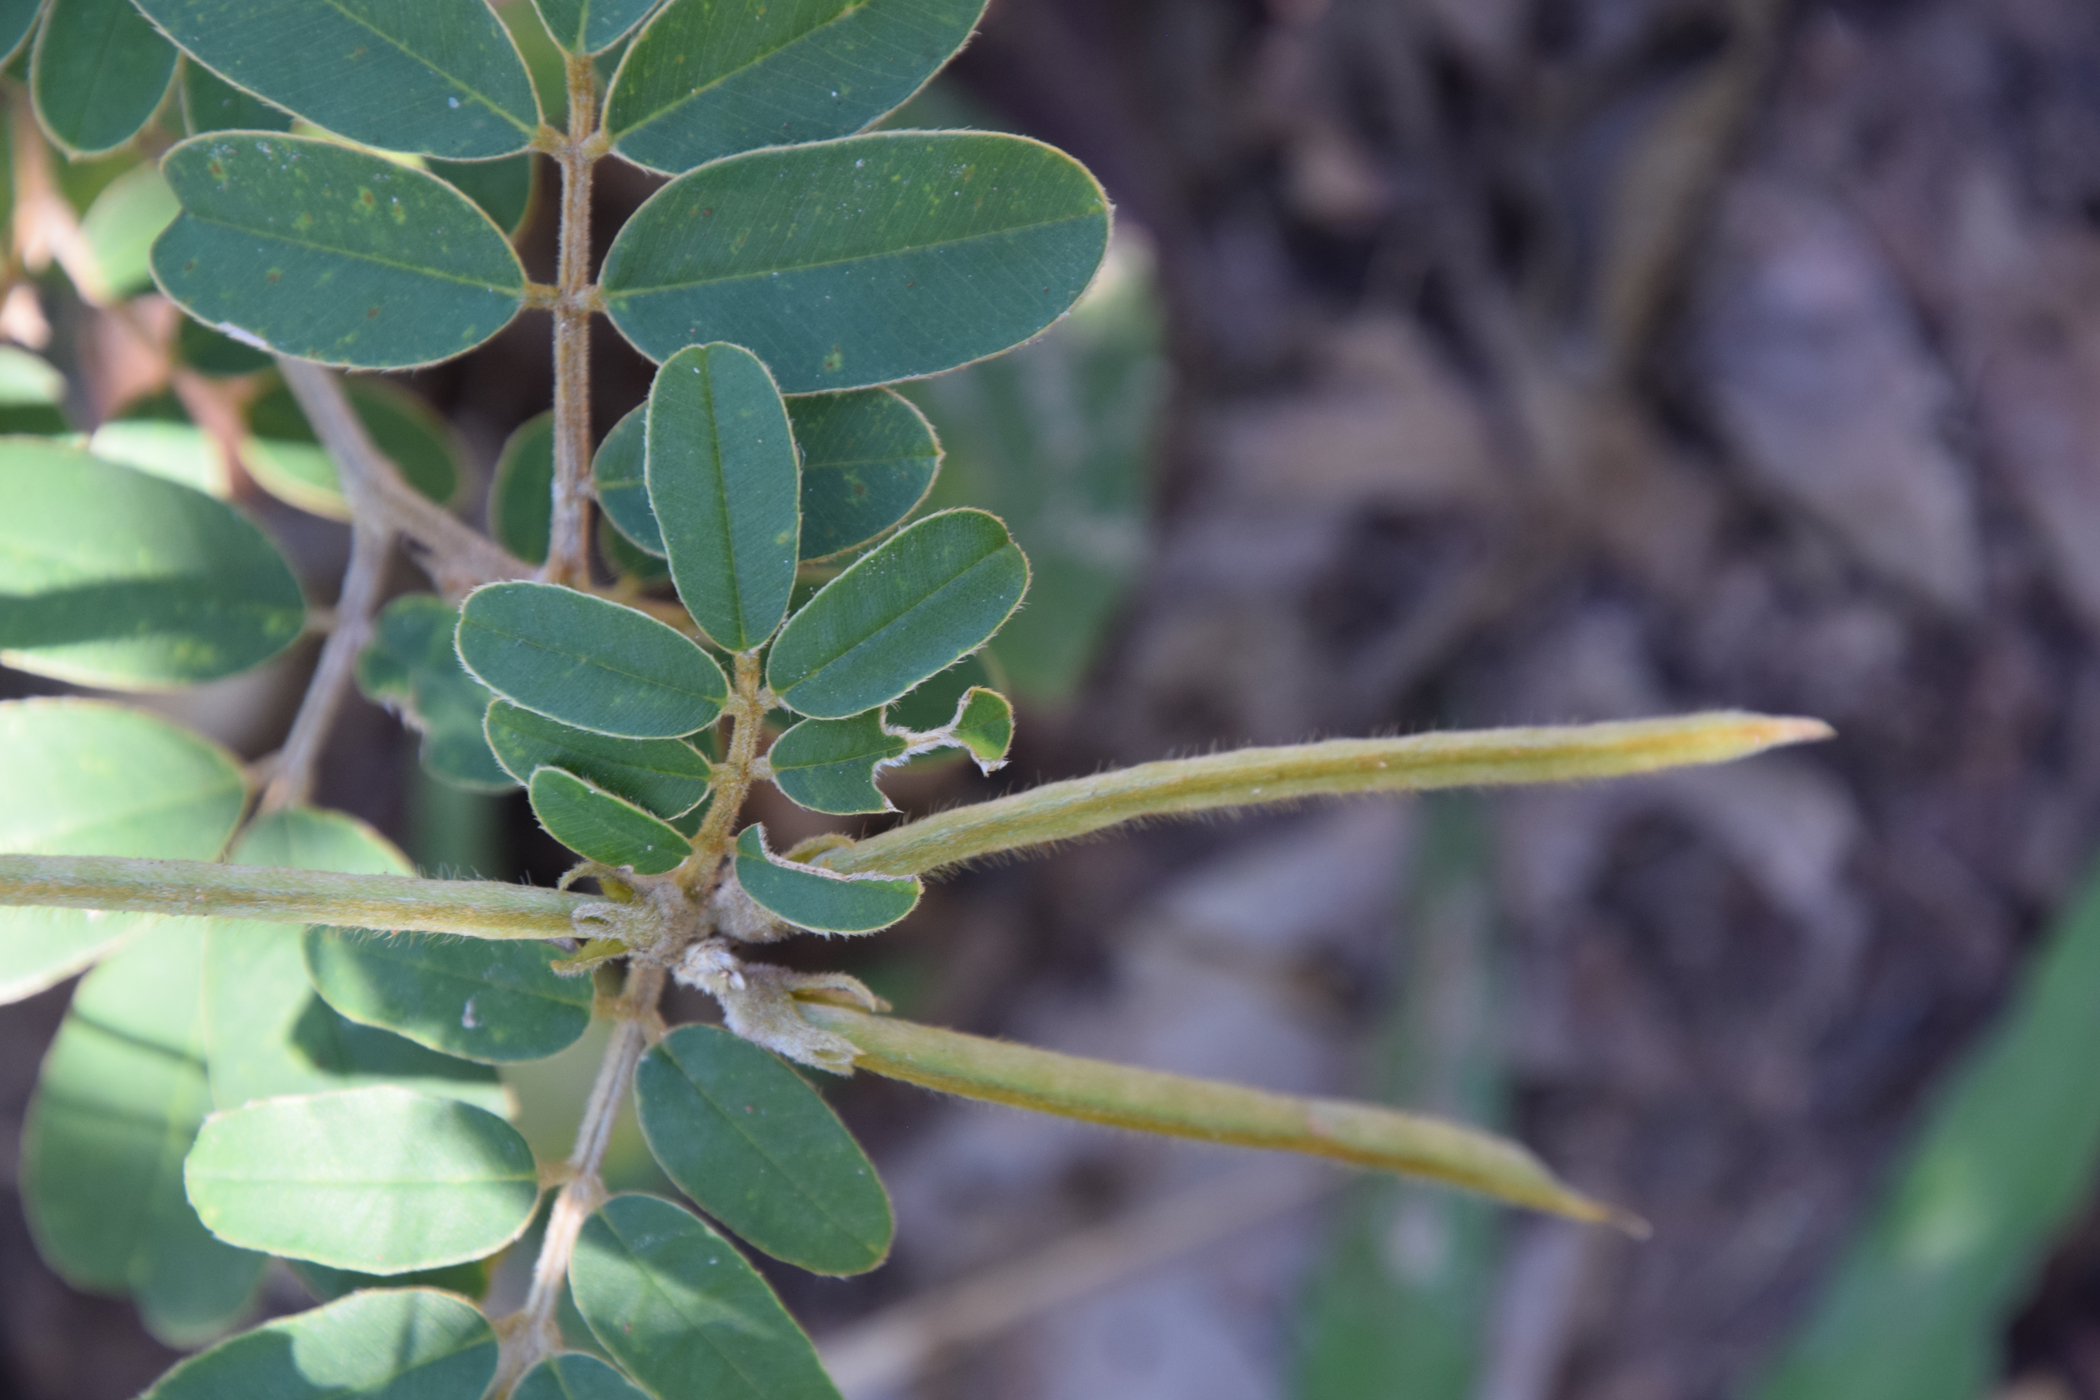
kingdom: Plantae
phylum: Tracheophyta
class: Magnoliopsida
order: Fabales
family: Fabaceae
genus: Tephrosia
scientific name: Tephrosia vestita
